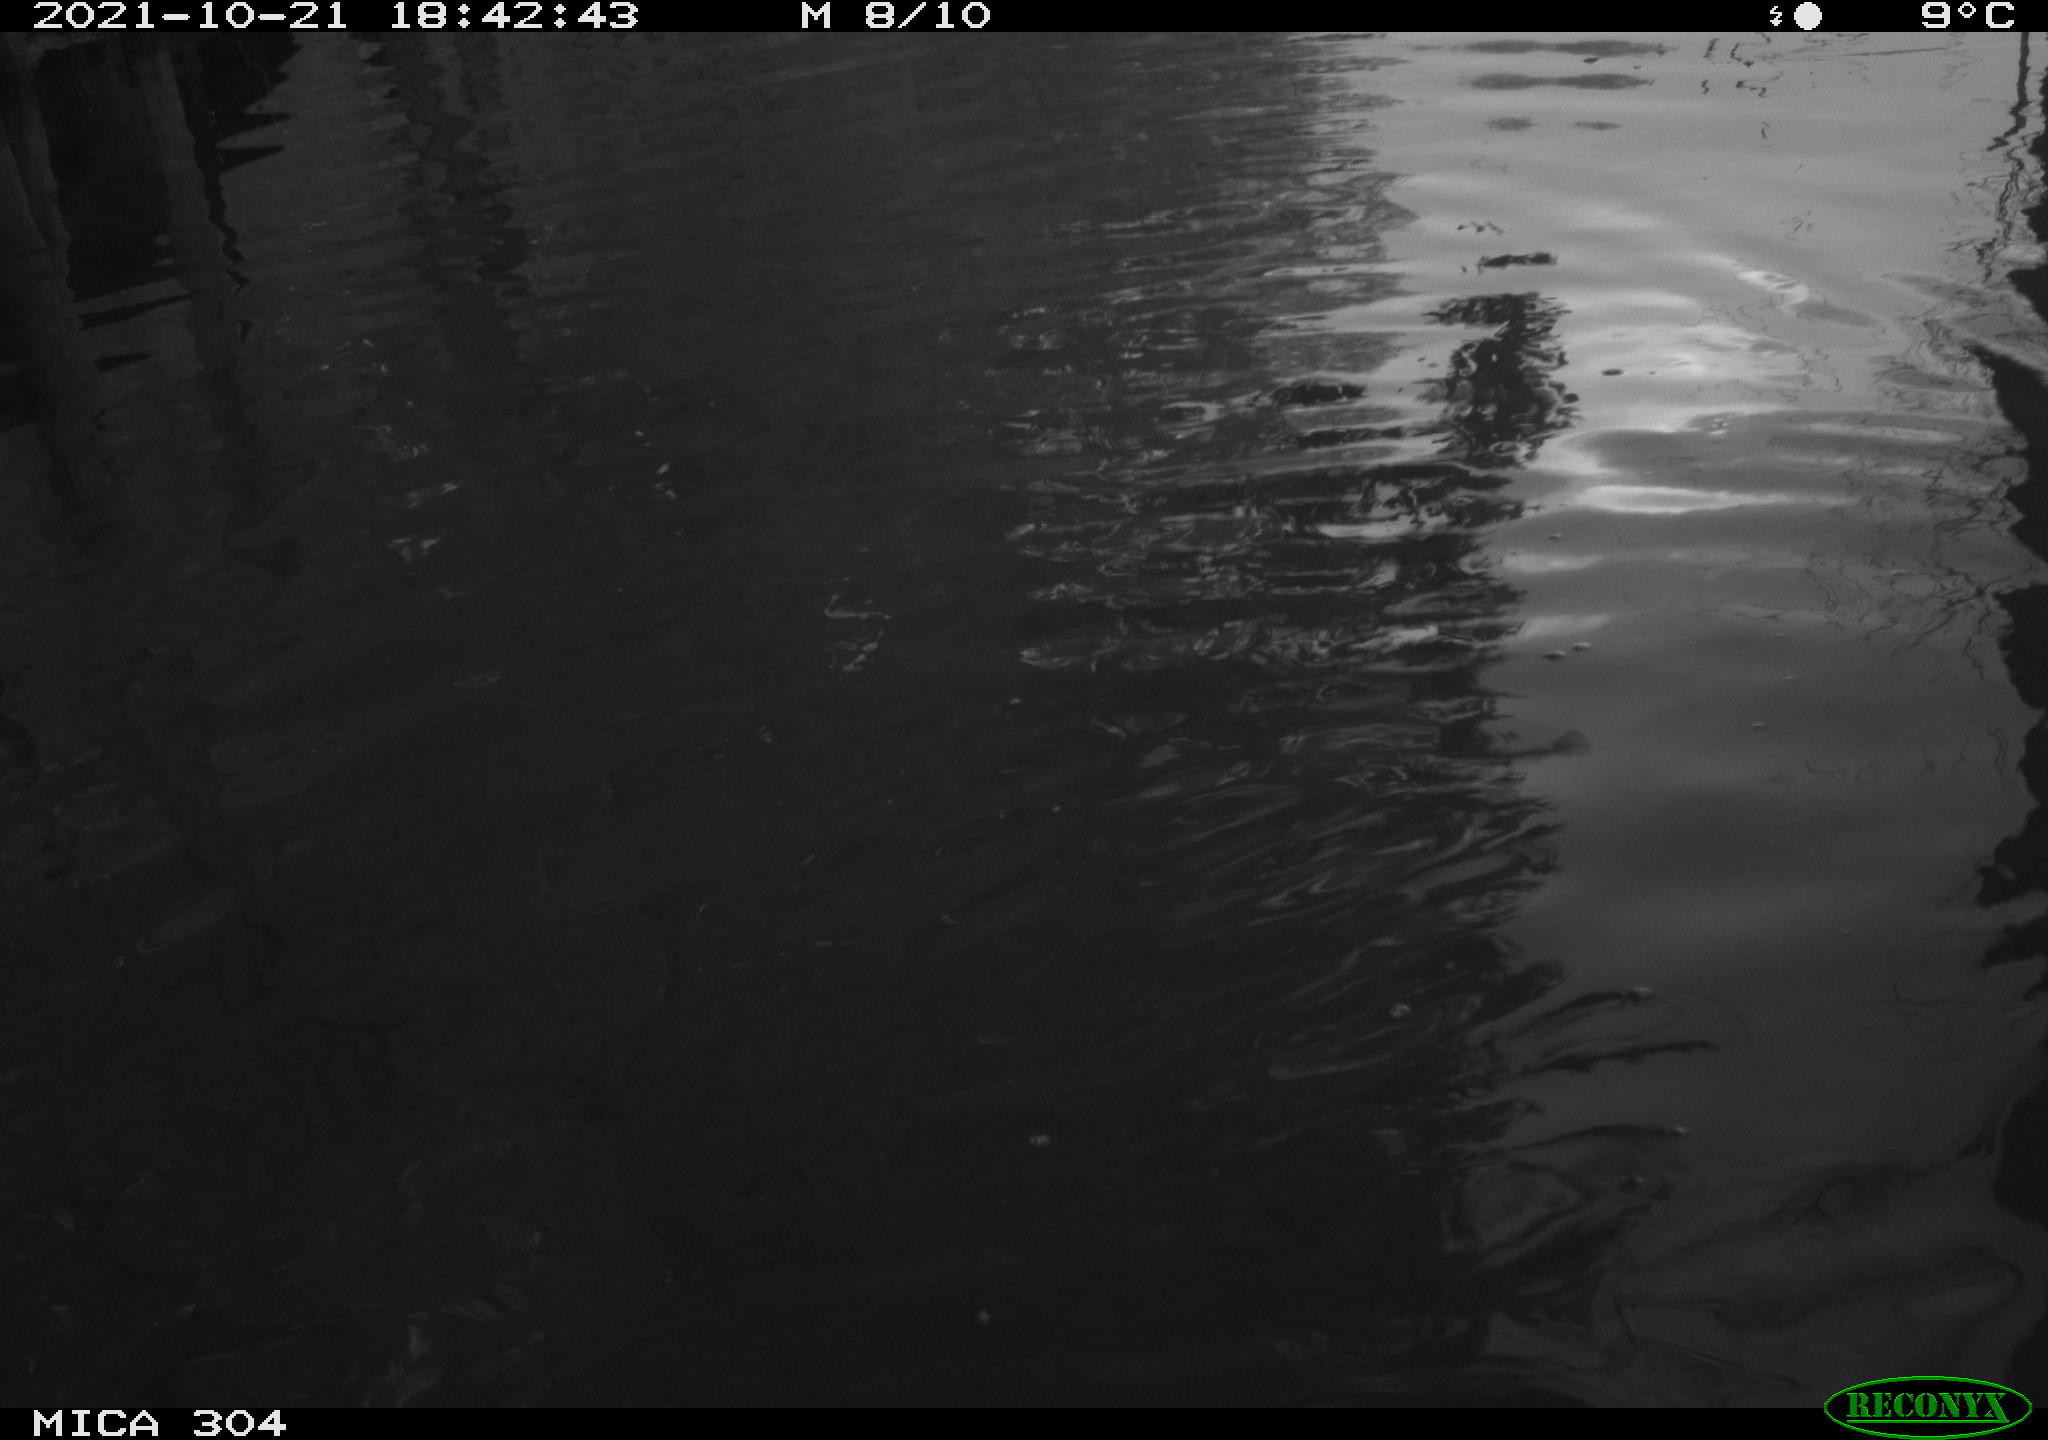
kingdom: Animalia
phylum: Chordata
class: Mammalia
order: Rodentia
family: Muridae
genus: Rattus
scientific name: Rattus norvegicus
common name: Brown rat
